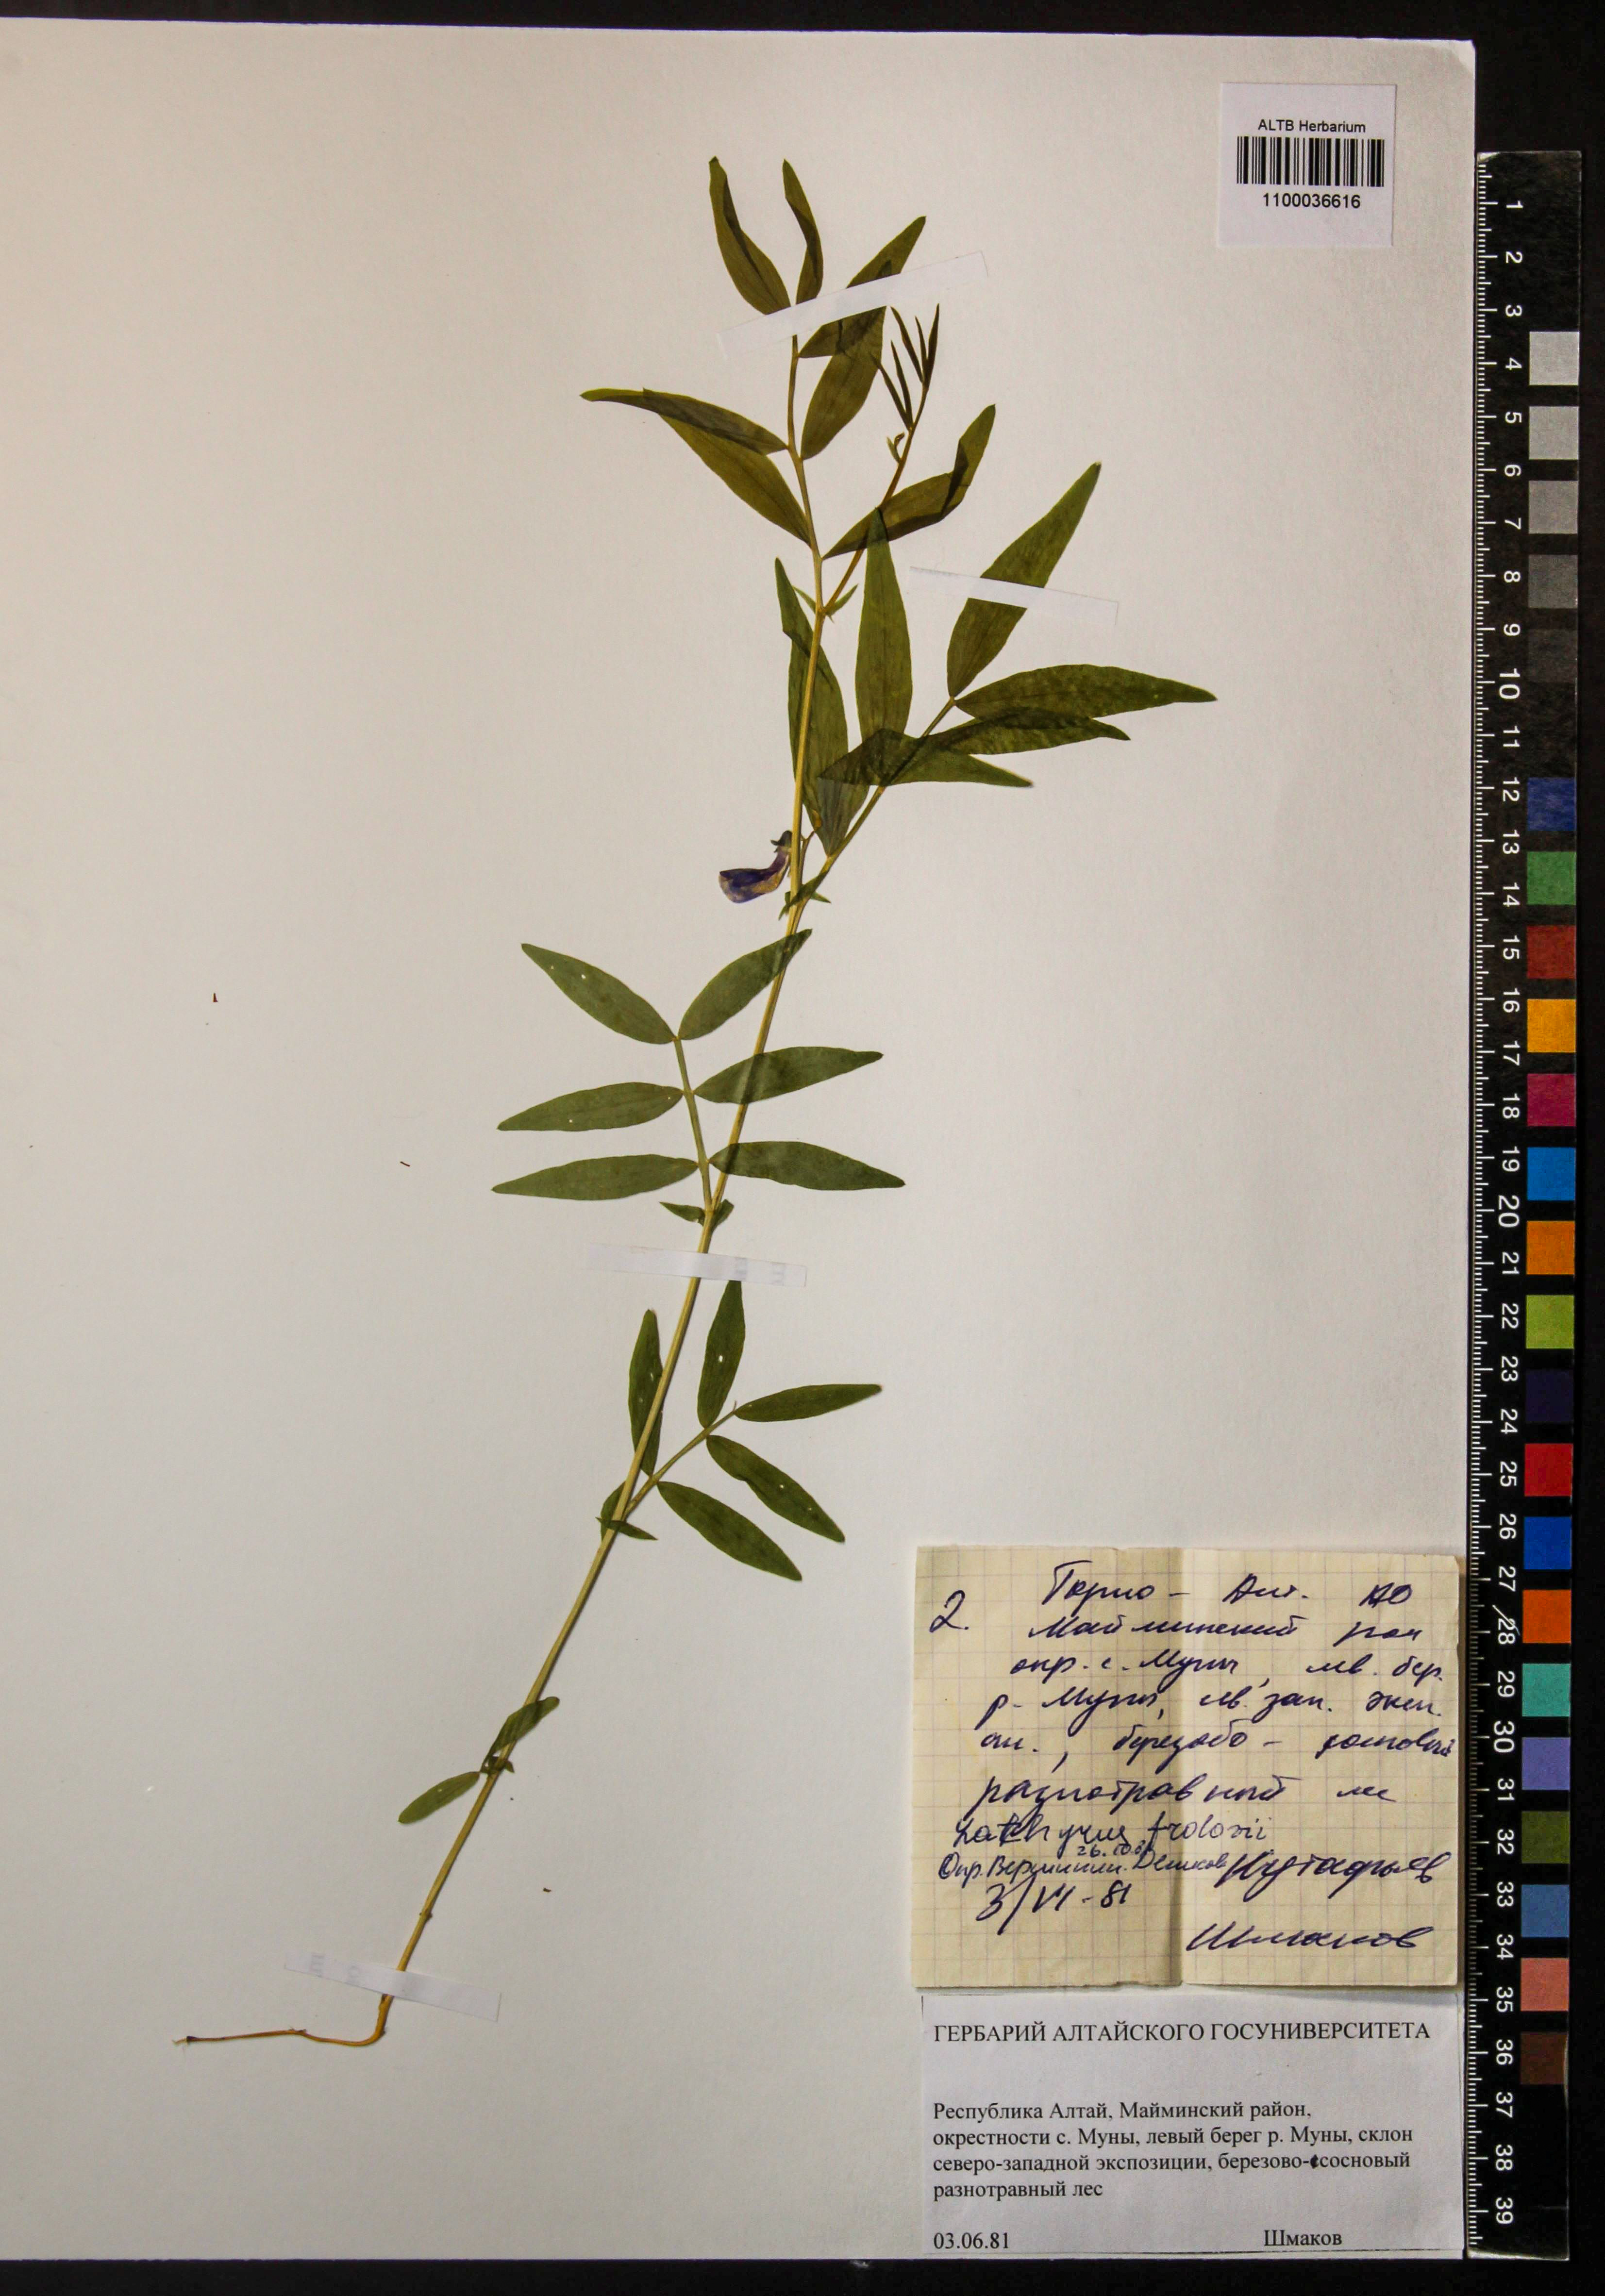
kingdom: Plantae
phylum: Tracheophyta
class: Magnoliopsida
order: Fabales
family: Fabaceae
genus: Lathyrus
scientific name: Lathyrus frolovii
